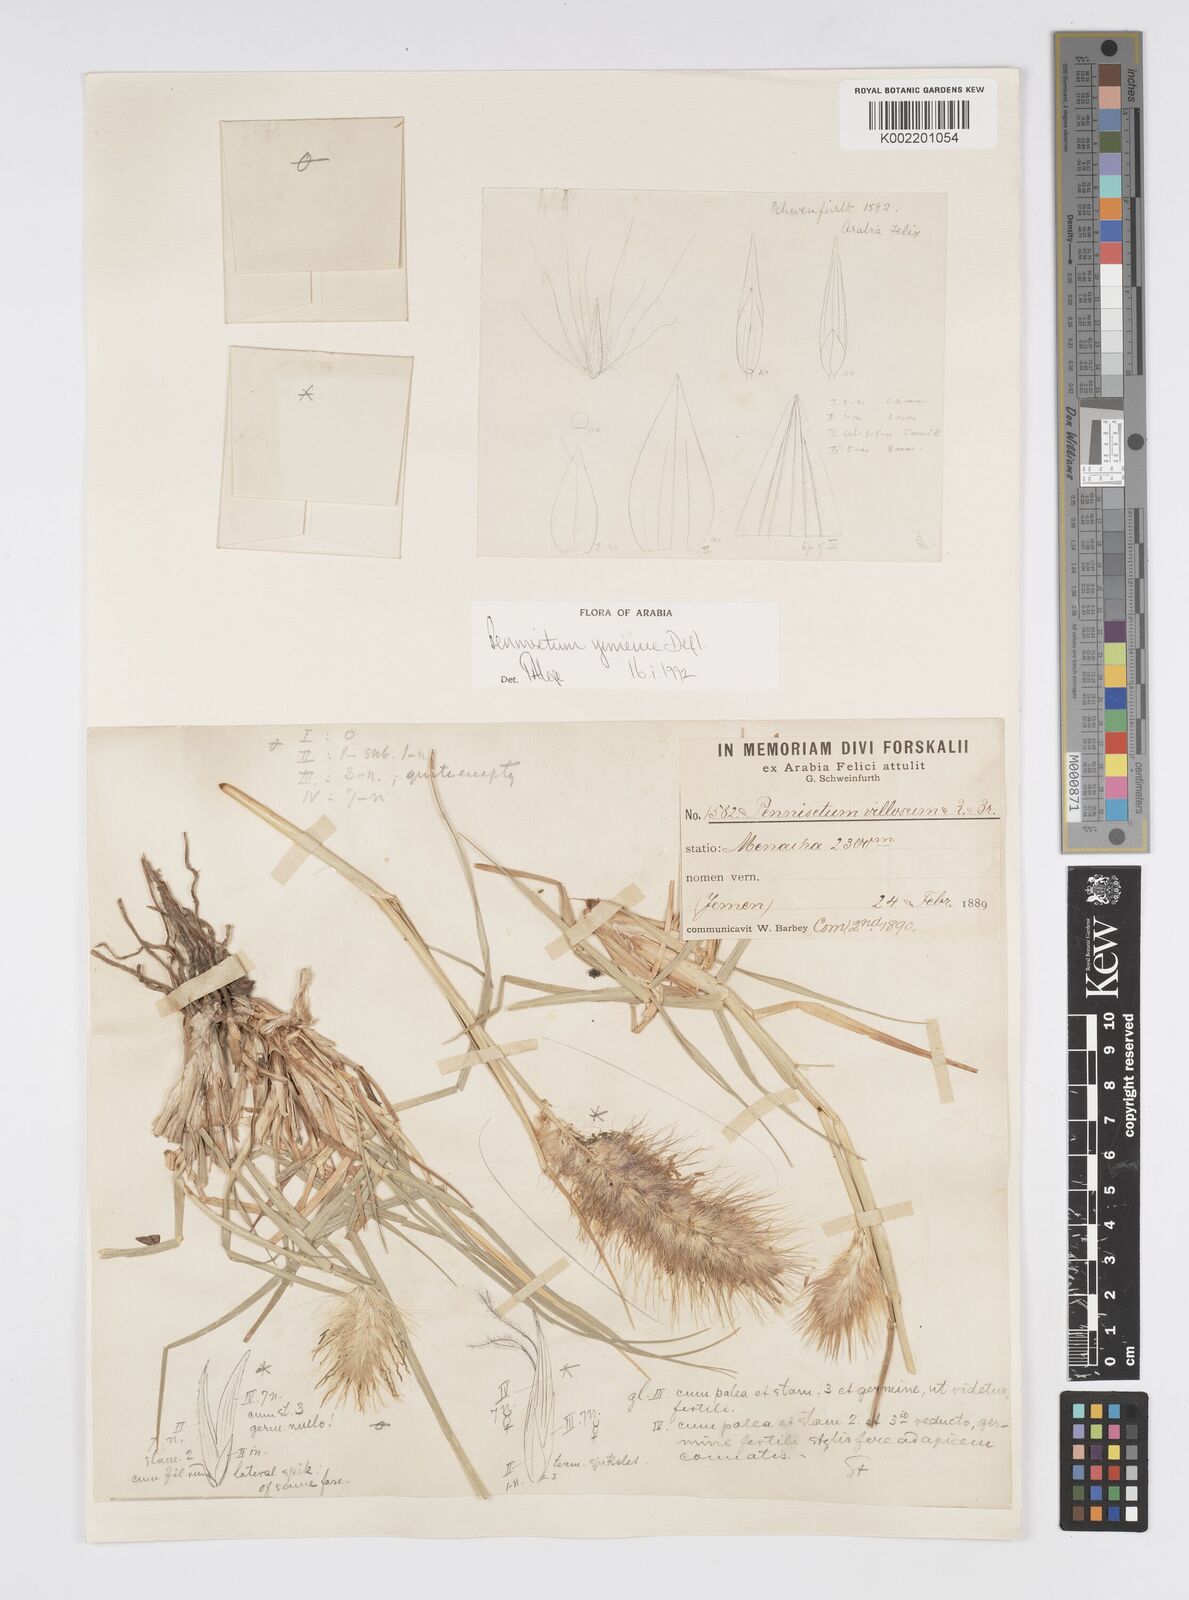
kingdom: Plantae
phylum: Tracheophyta
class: Liliopsida
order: Poales
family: Poaceae
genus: Cenchrus
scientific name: Cenchrus yemensis
